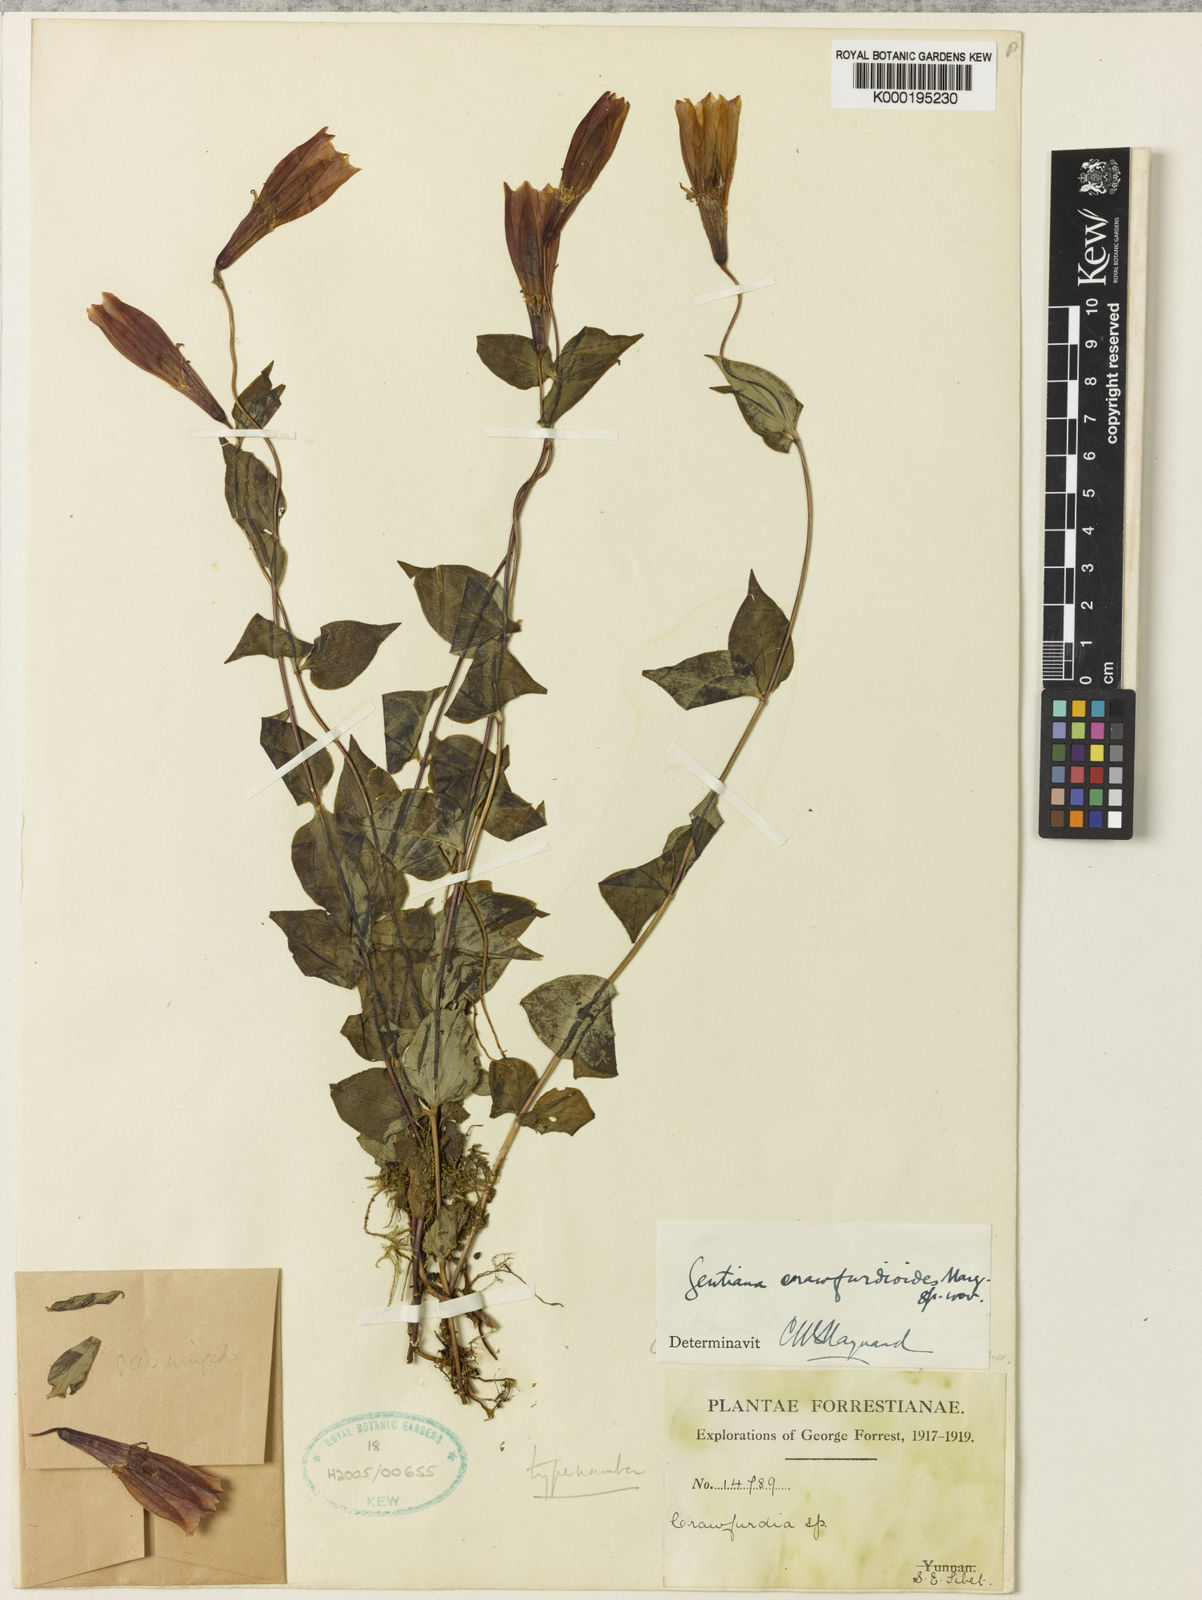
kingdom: Plantae
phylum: Tracheophyta
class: Magnoliopsida
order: Gentianales
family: Gentianaceae
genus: Crawfurdia
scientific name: Crawfurdia crawfurdioides
